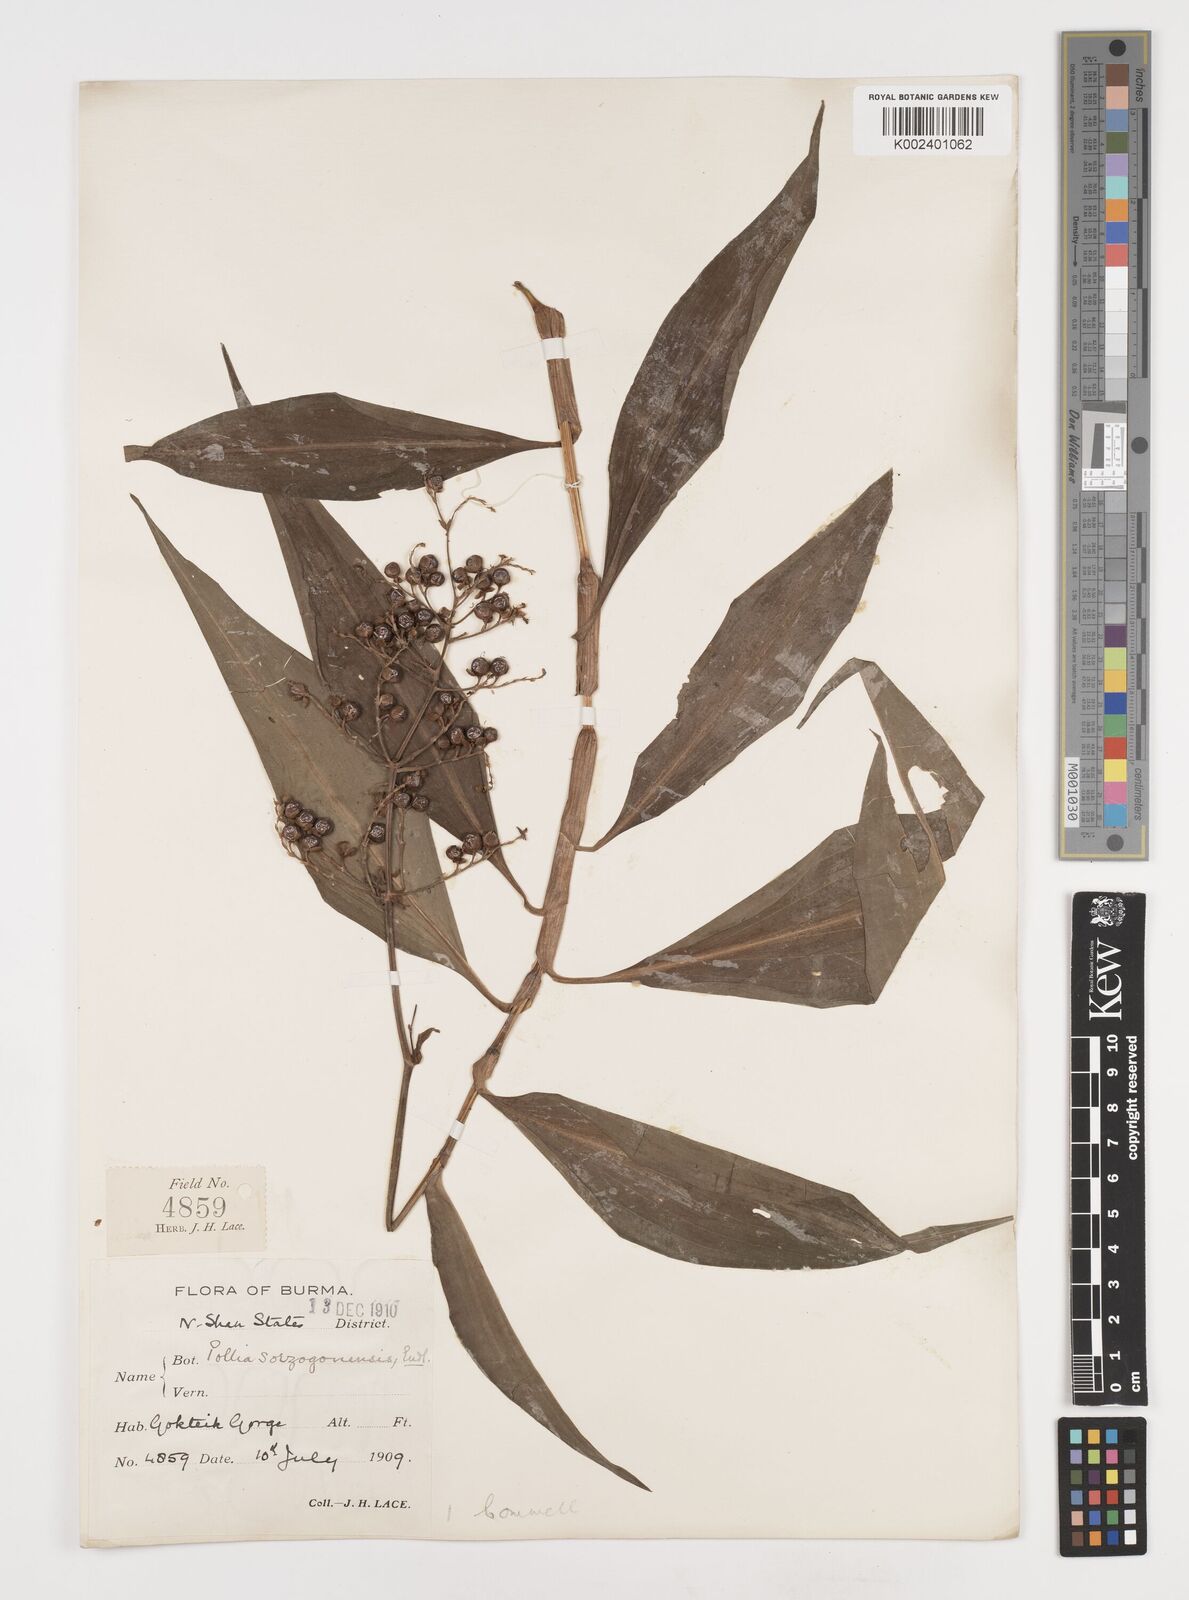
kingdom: Plantae
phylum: Tracheophyta
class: Liliopsida
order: Commelinales
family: Commelinaceae
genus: Pollia
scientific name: Pollia secundiflora
